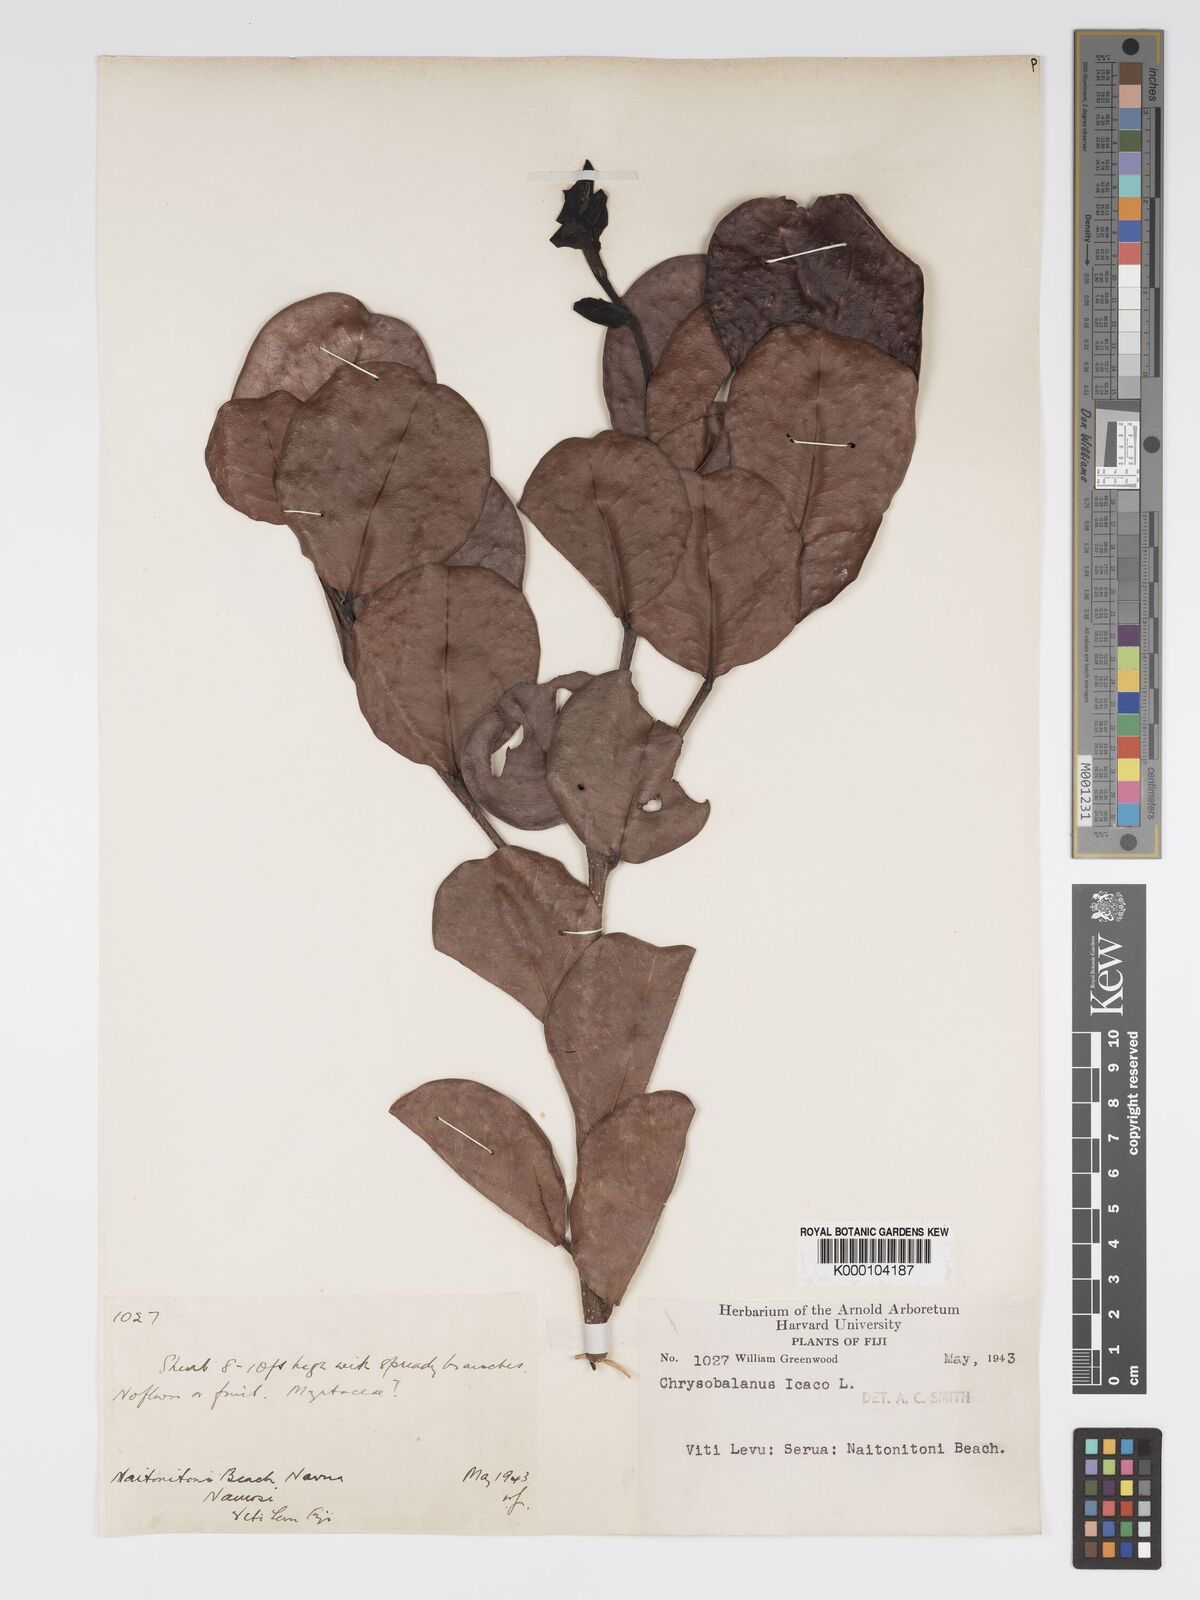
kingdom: Plantae
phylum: Tracheophyta
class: Magnoliopsida
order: Malpighiales
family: Chrysobalanaceae
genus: Chrysobalanus
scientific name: Chrysobalanus icaco
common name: Coco plum
